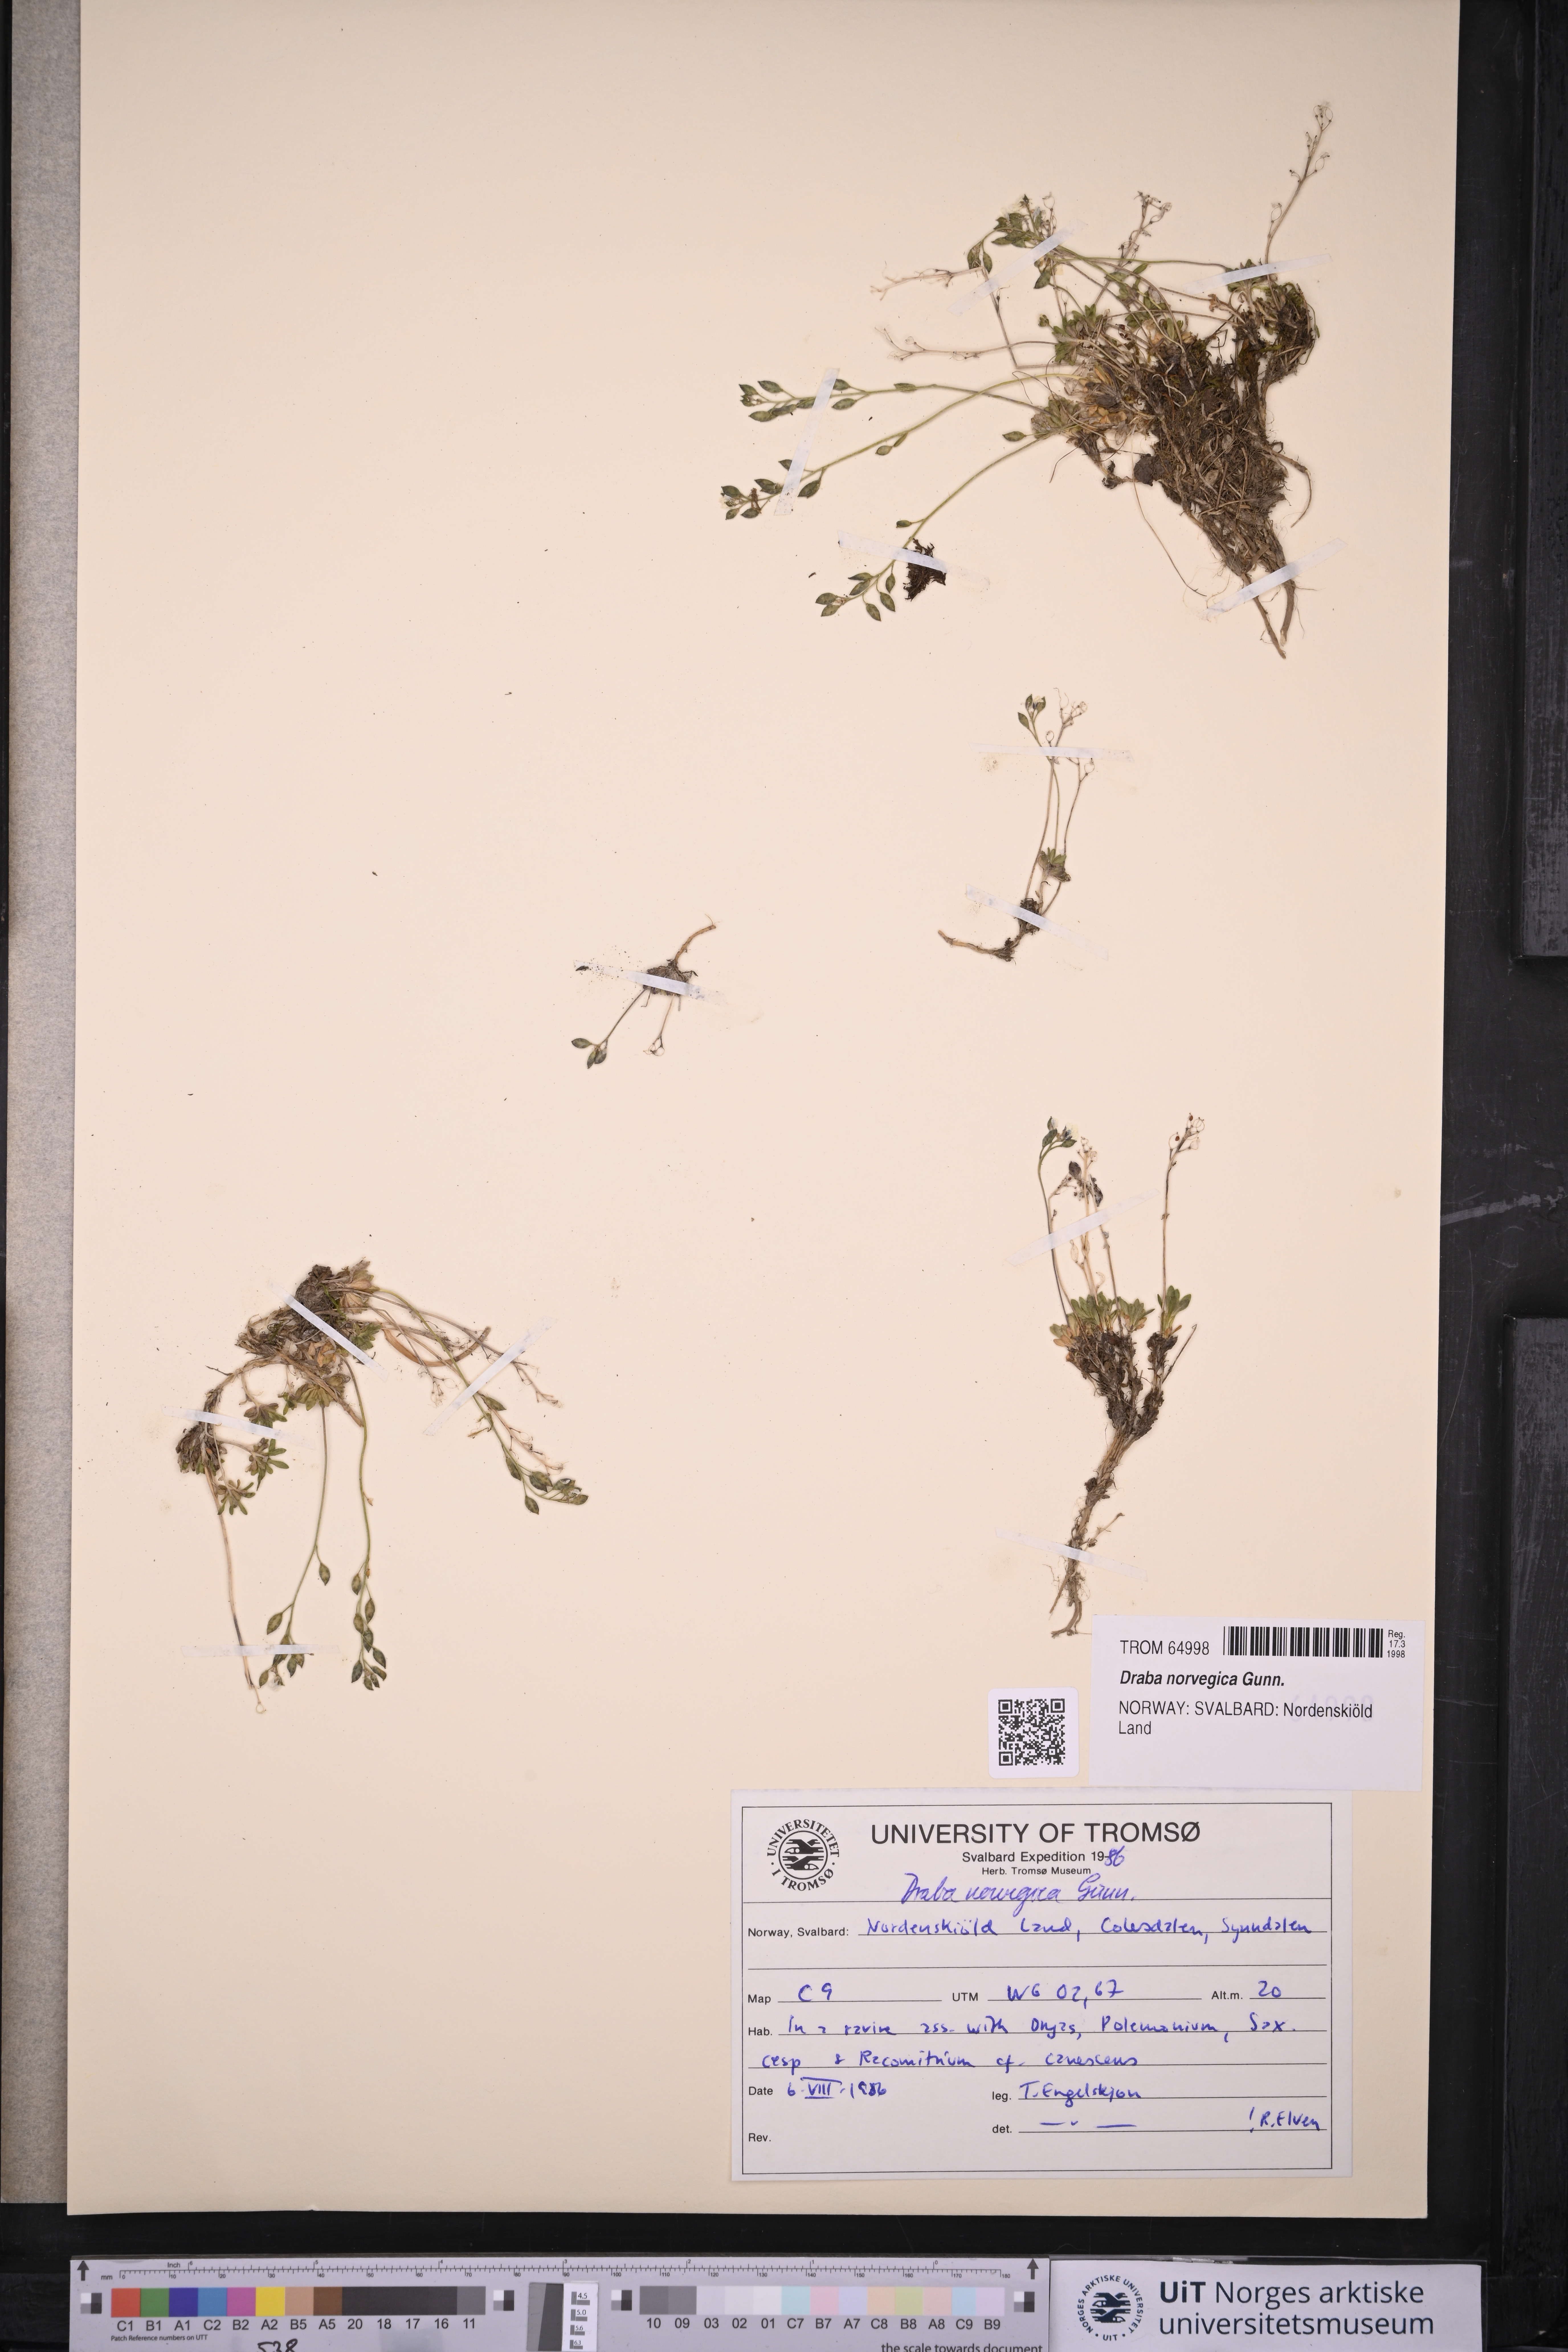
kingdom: Plantae
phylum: Tracheophyta
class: Magnoliopsida
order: Brassicales
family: Brassicaceae
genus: Draba
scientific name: Draba norvegica
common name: Rock whitlowgrass
